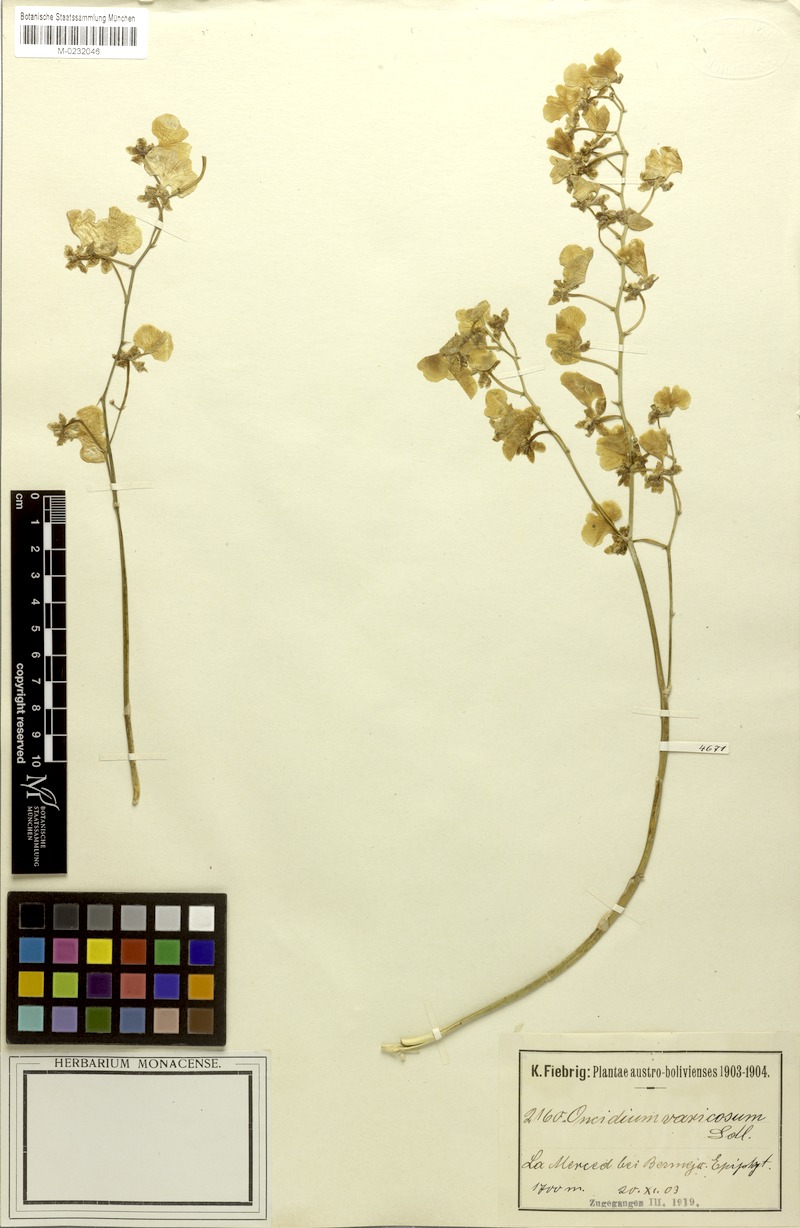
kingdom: Plantae
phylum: Tracheophyta
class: Liliopsida
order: Asparagales
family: Orchidaceae
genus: Gomesa
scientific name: Gomesa varicosa
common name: Dancing ladies
